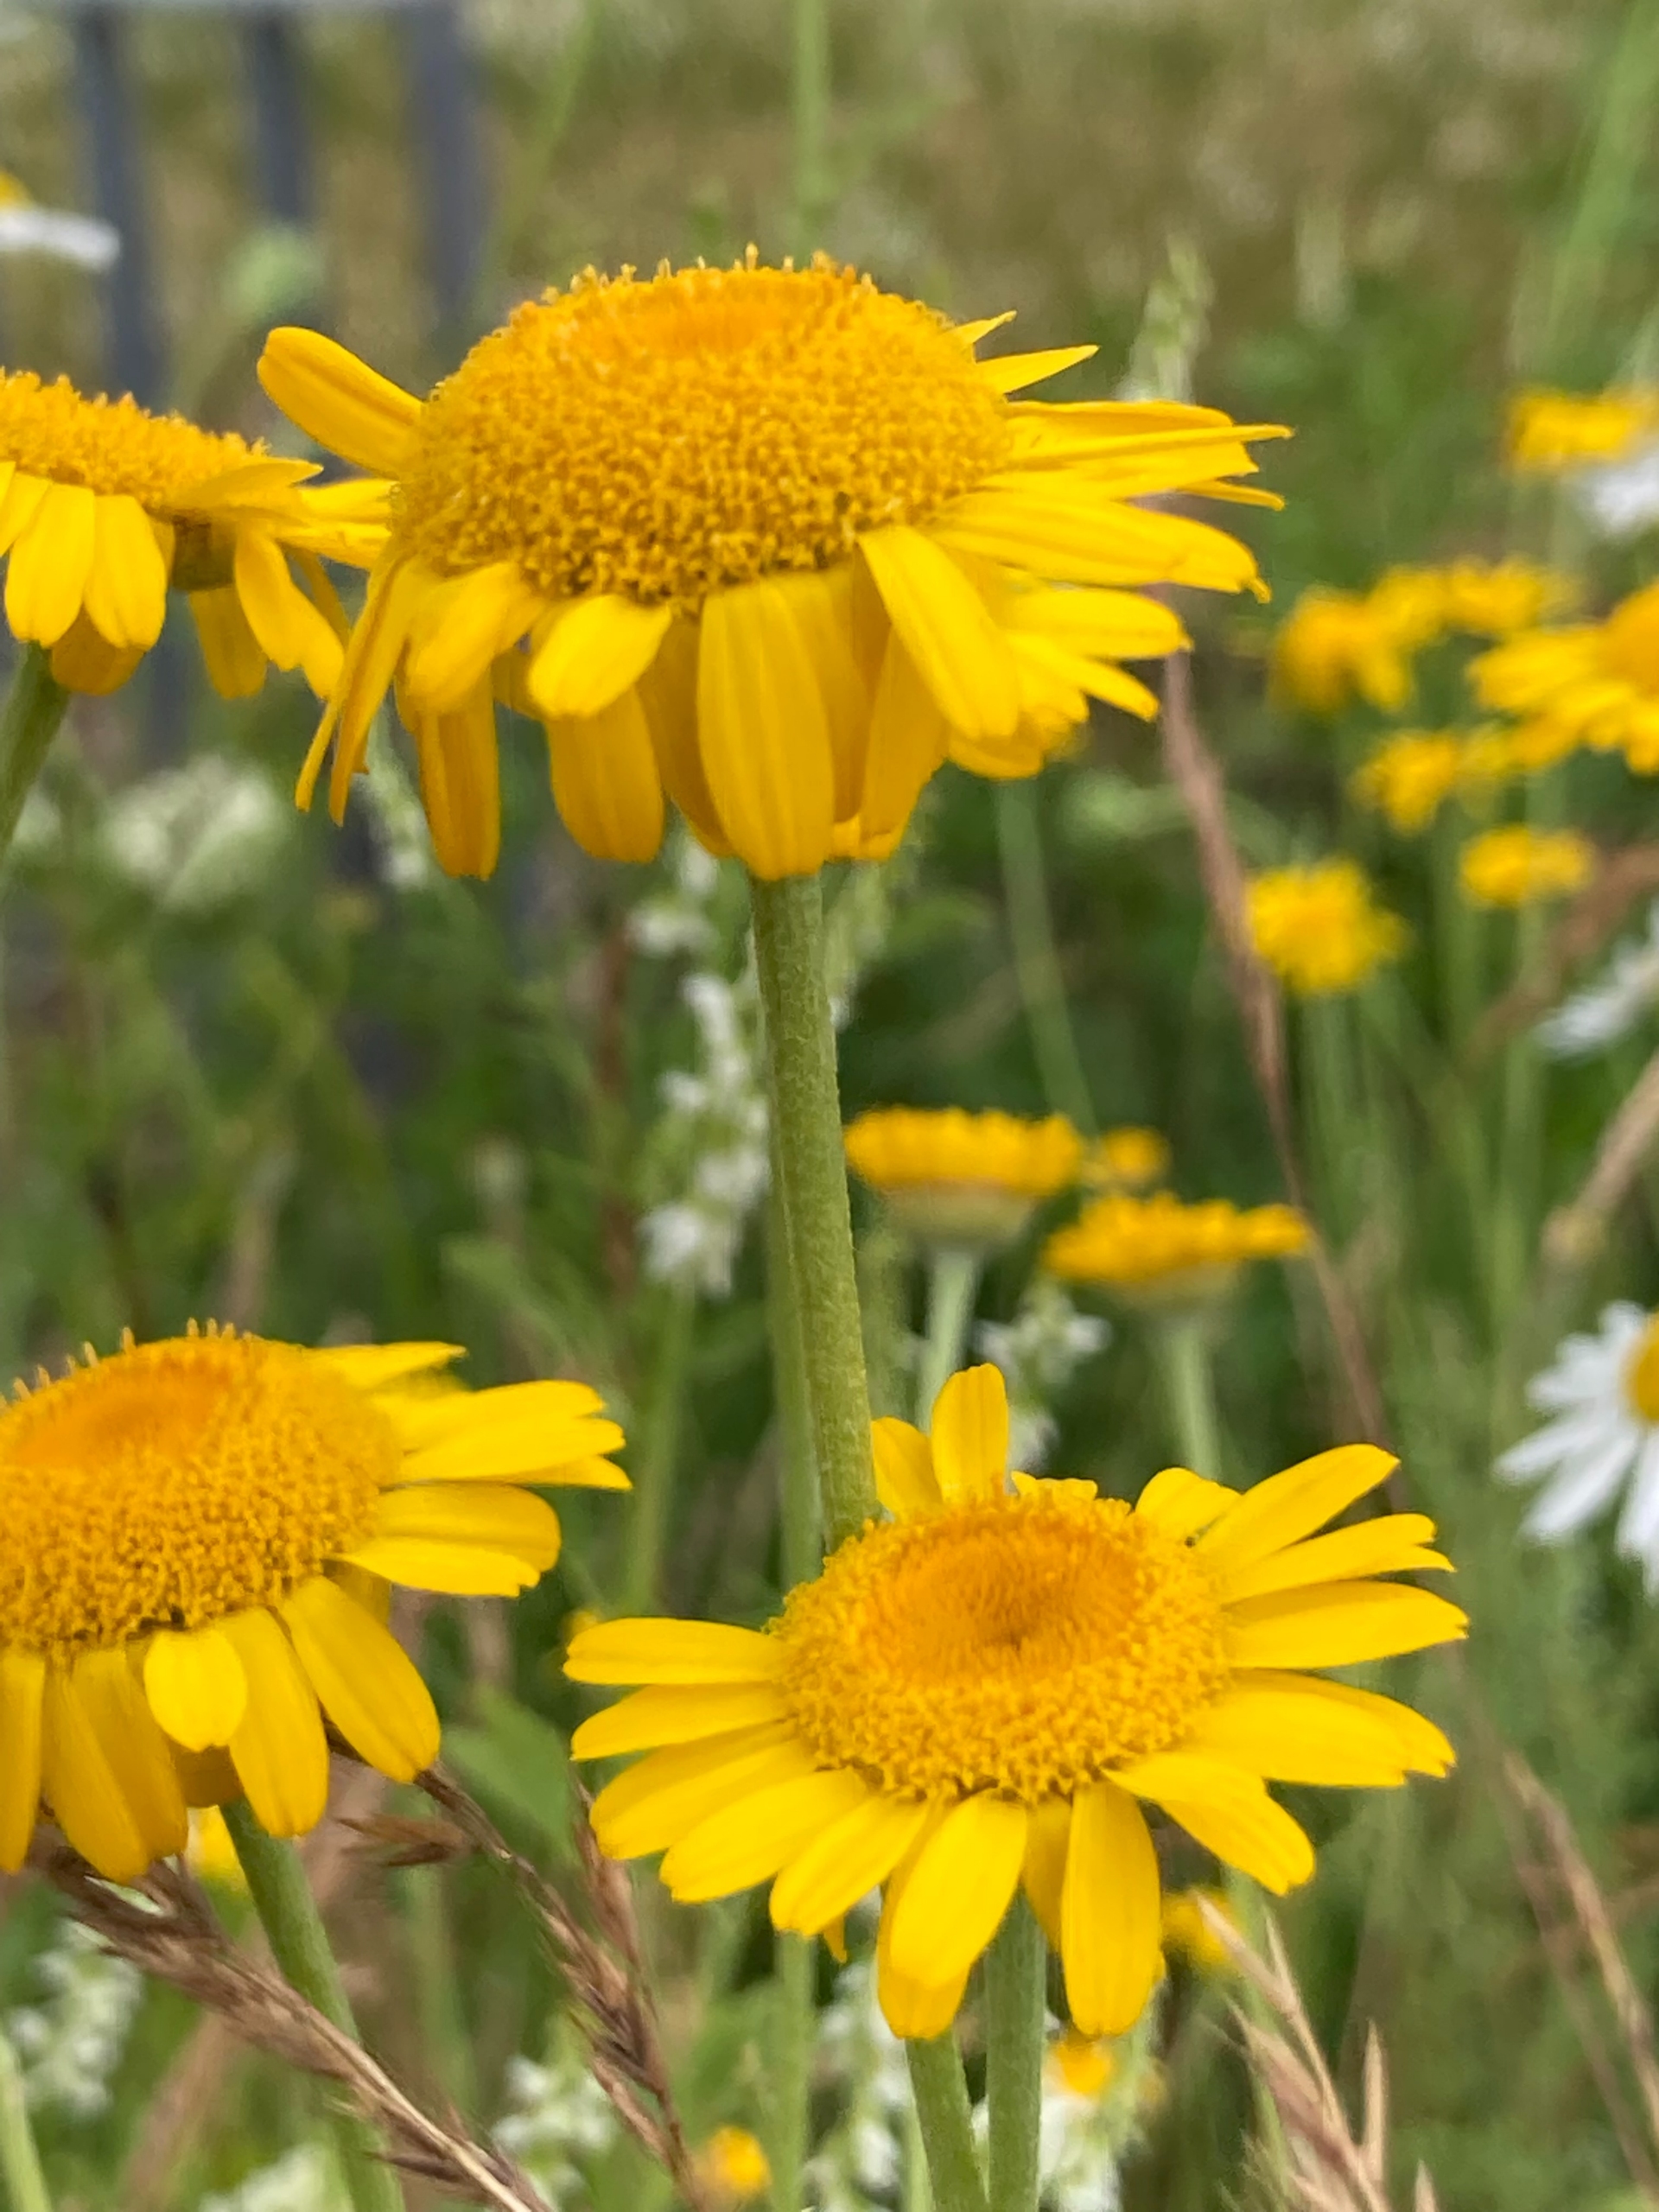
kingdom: Plantae
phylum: Tracheophyta
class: Magnoliopsida
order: Asterales
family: Asteraceae
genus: Cota
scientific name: Cota tinctoria
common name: Farve-gåseurt
